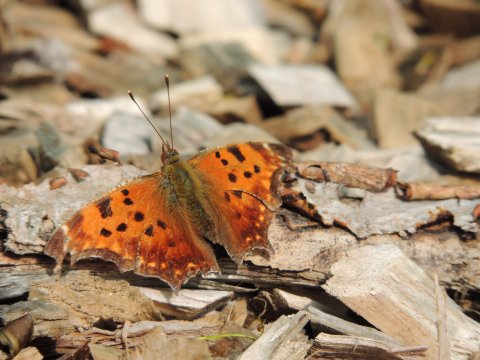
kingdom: Animalia
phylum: Arthropoda
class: Insecta
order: Lepidoptera
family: Nymphalidae
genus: Polygonia
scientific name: Polygonia comma
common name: Eastern Comma
